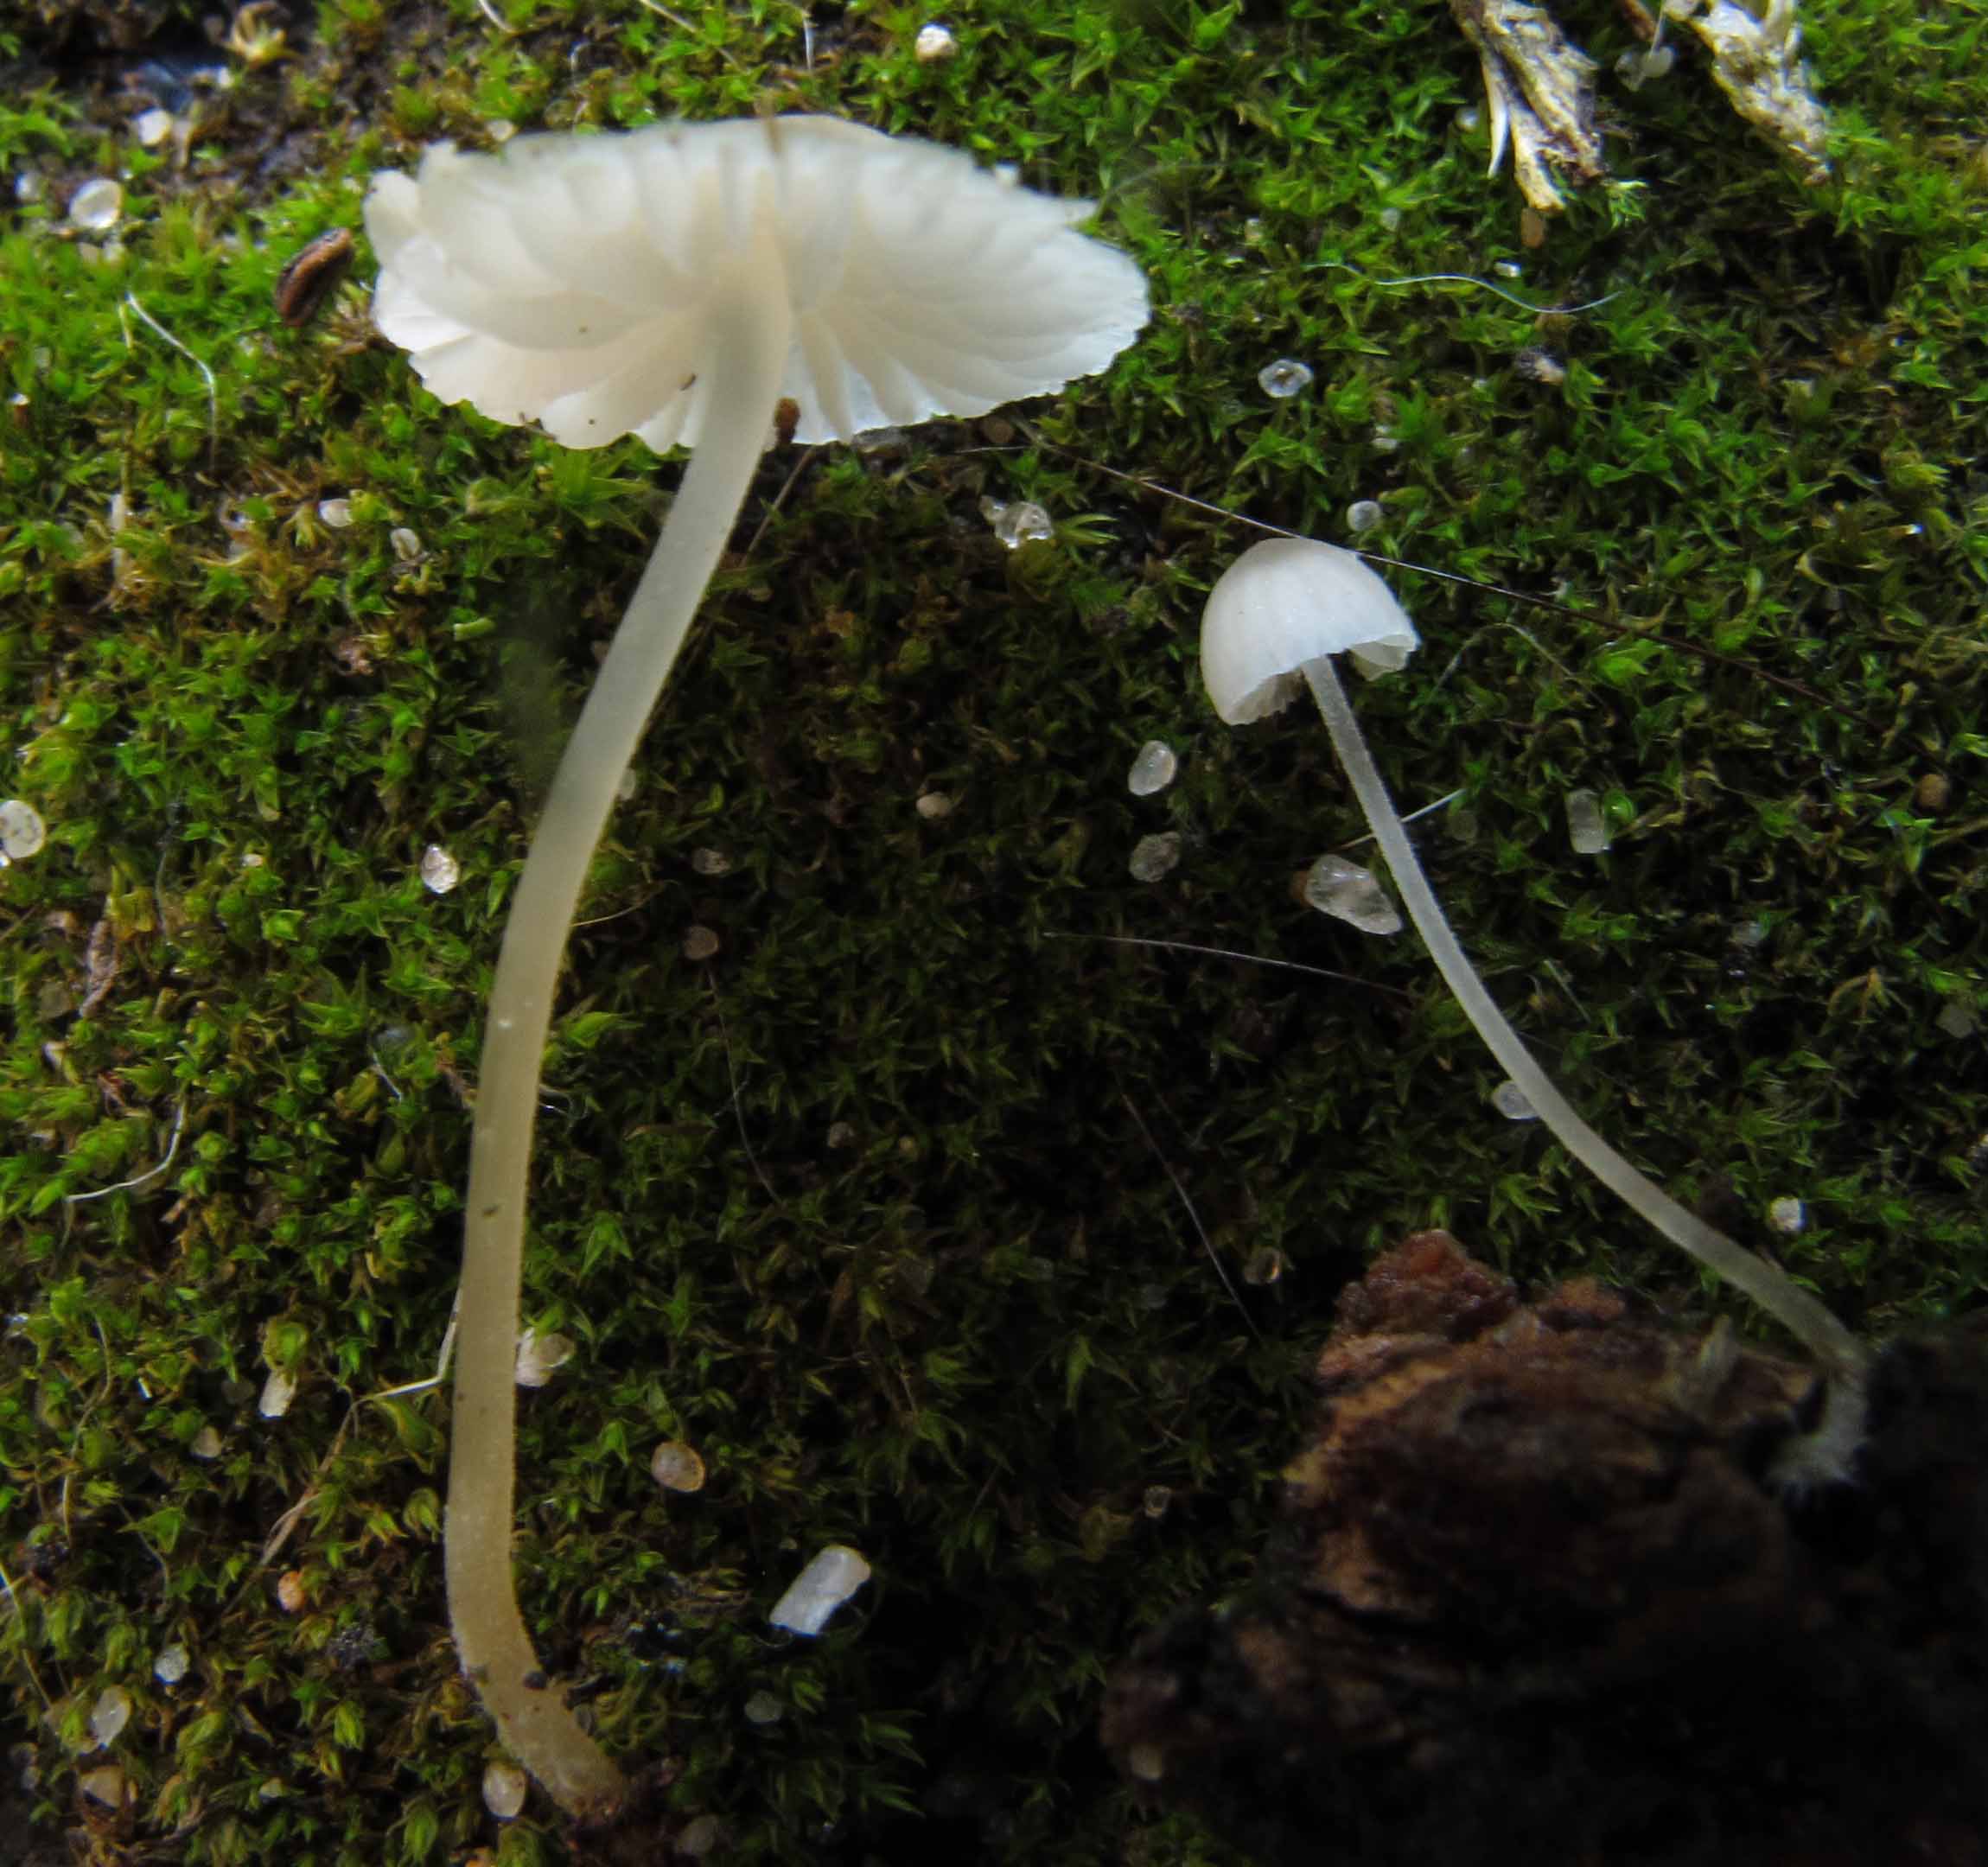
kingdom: Fungi
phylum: Basidiomycota
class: Agaricomycetes
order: Agaricales
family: Porotheleaceae
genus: Phloeomana
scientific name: Phloeomana hiemalis
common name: sen huesvamp
